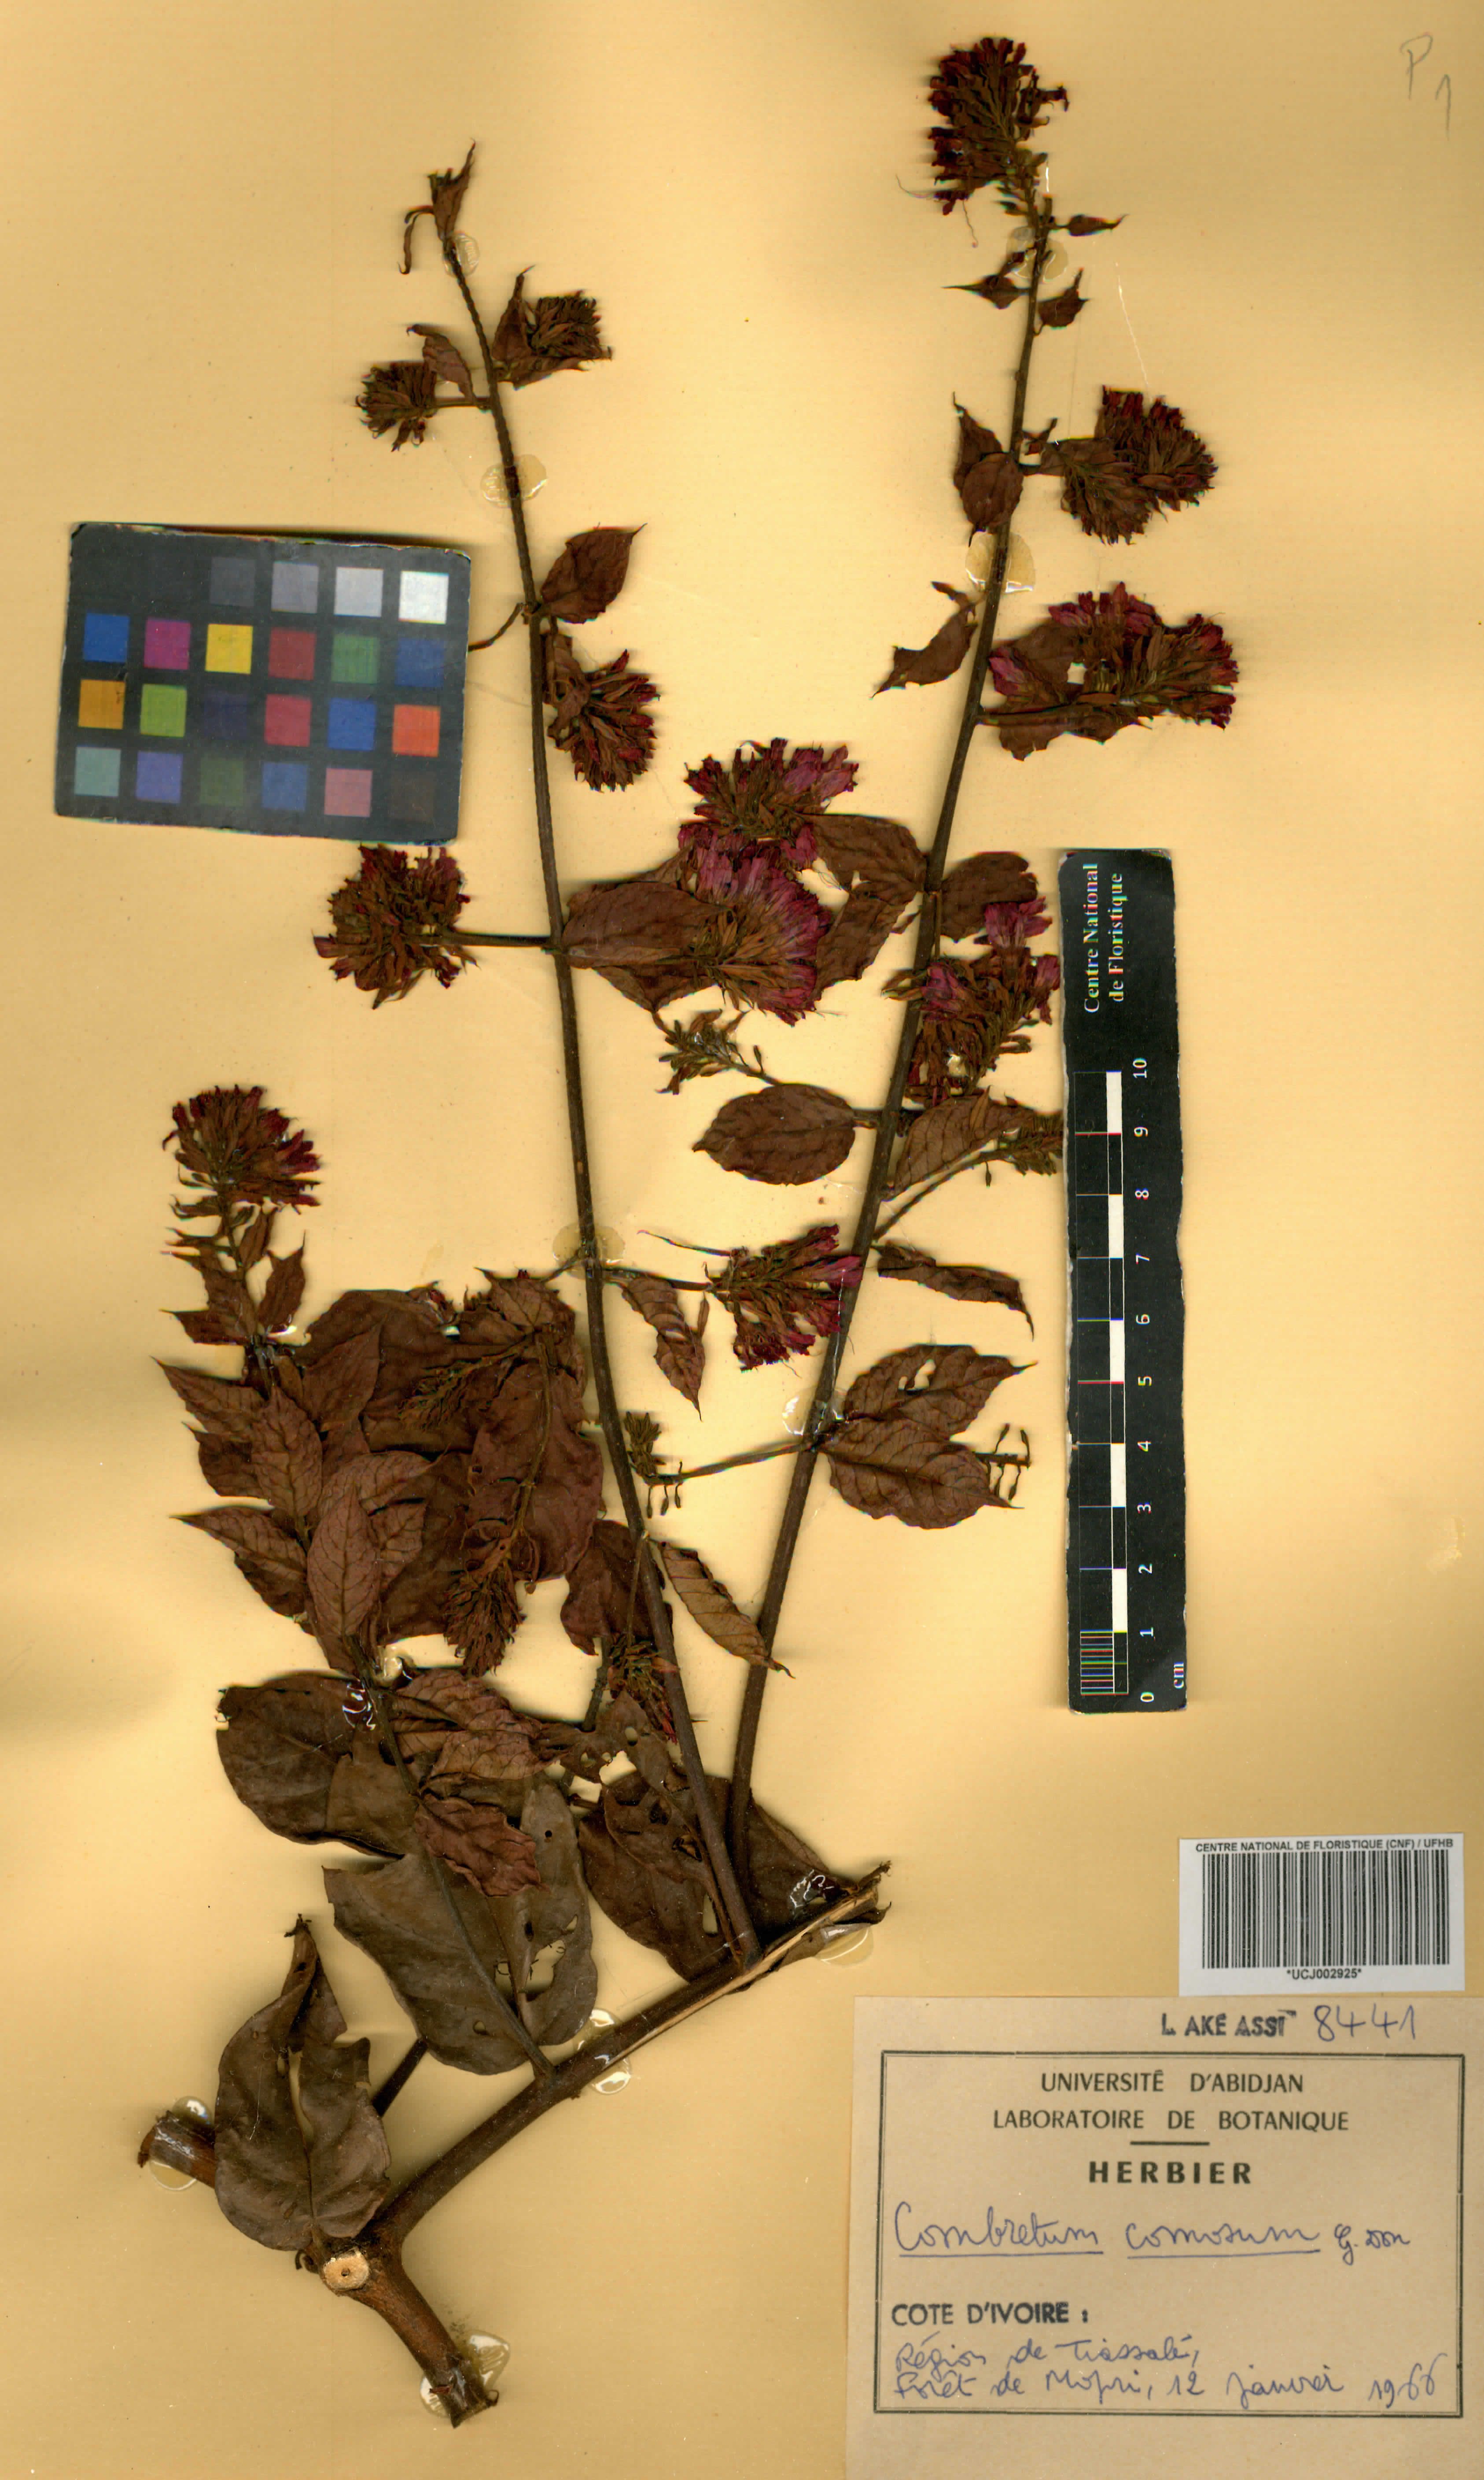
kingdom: Plantae
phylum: Tracheophyta
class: Magnoliopsida
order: Myrtales
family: Combretaceae
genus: Combretum
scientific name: Combretum comosum
